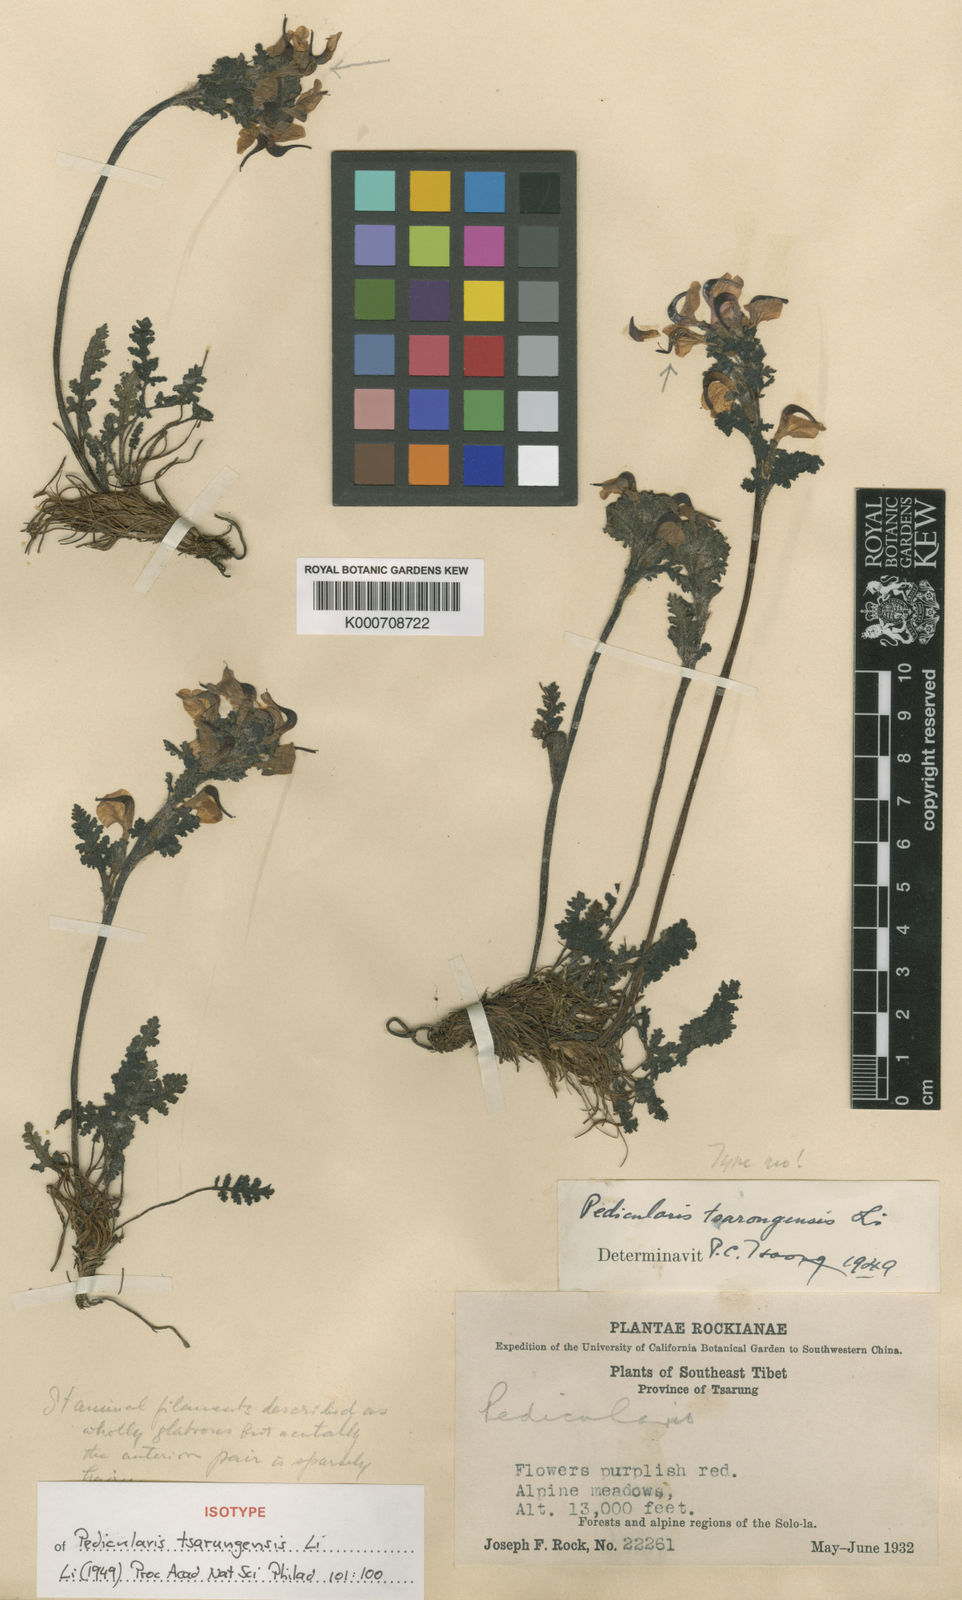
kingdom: Plantae
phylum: Tracheophyta
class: Magnoliopsida
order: Lamiales
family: Orobanchaceae
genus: Pedicularis
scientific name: Pedicularis tsarungensis
